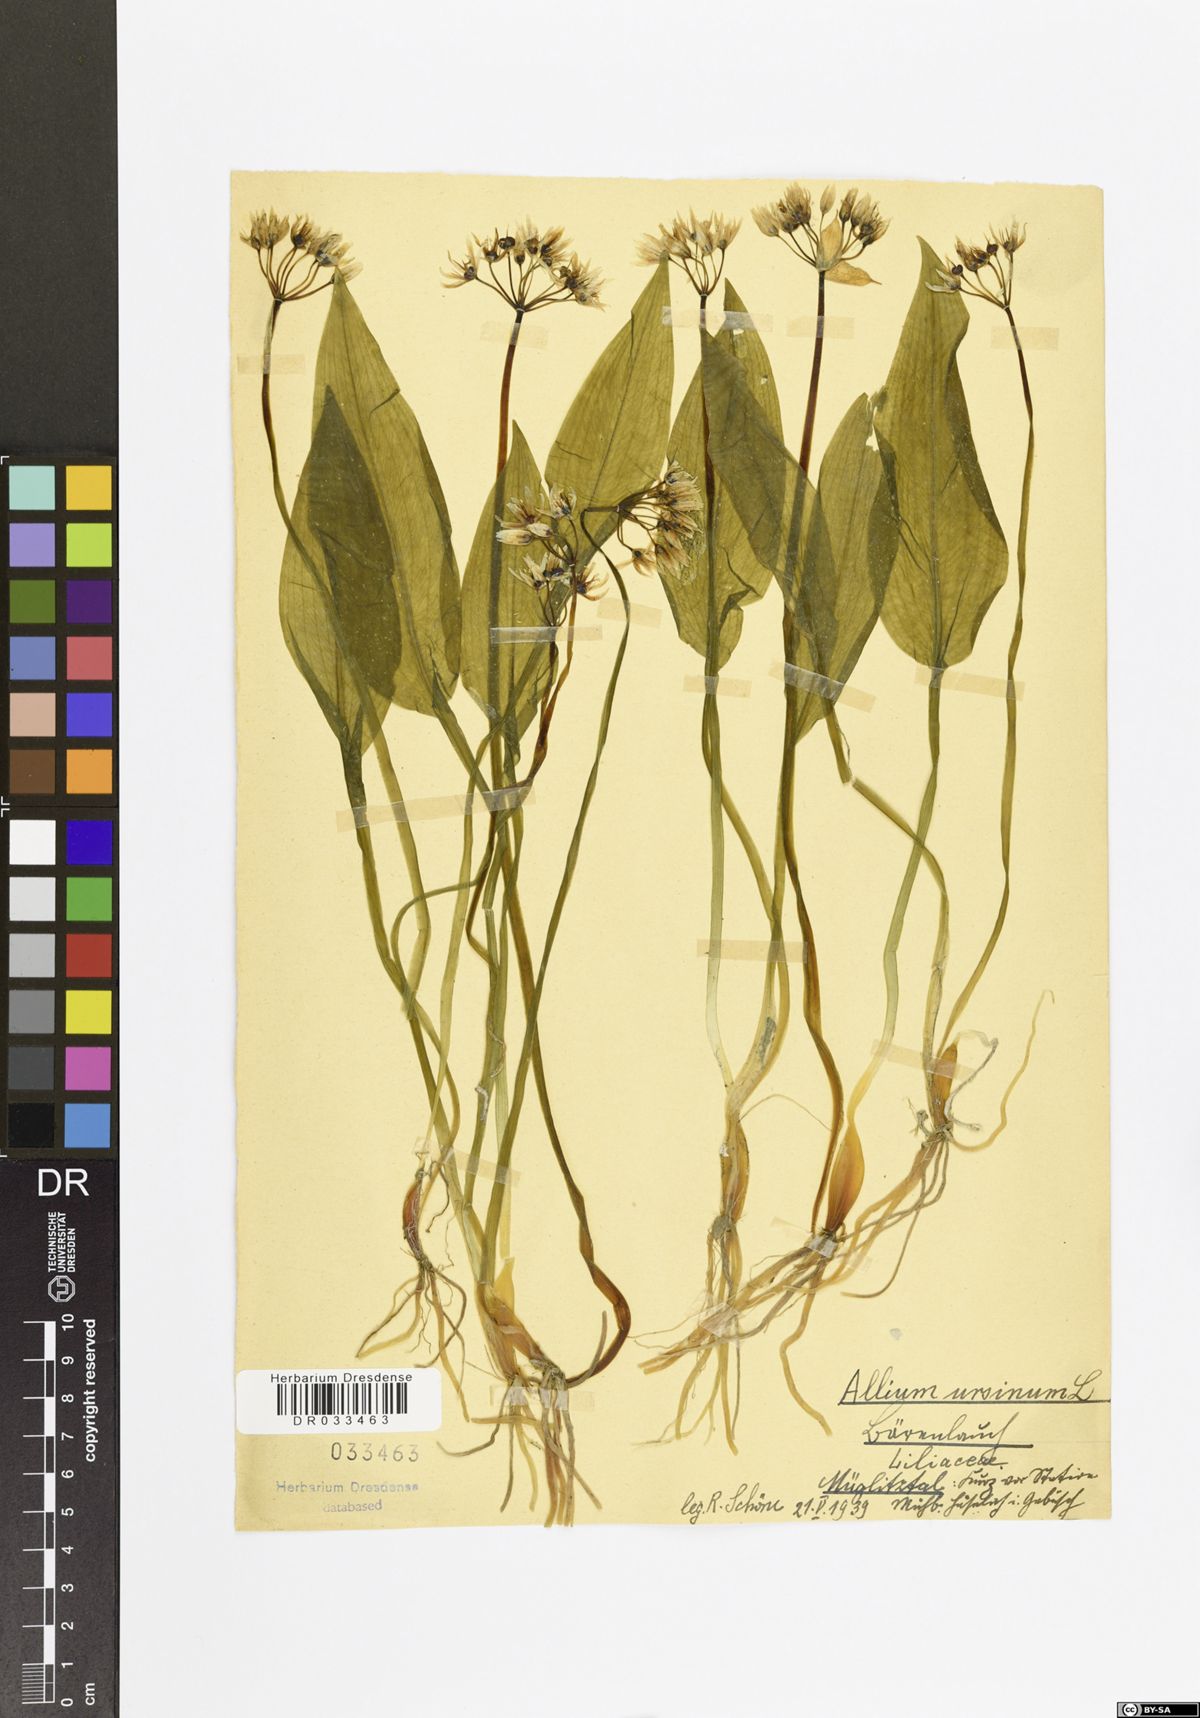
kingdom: Plantae
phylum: Tracheophyta
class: Liliopsida
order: Asparagales
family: Amaryllidaceae
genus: Allium
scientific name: Allium ursinum
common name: Ramsons
